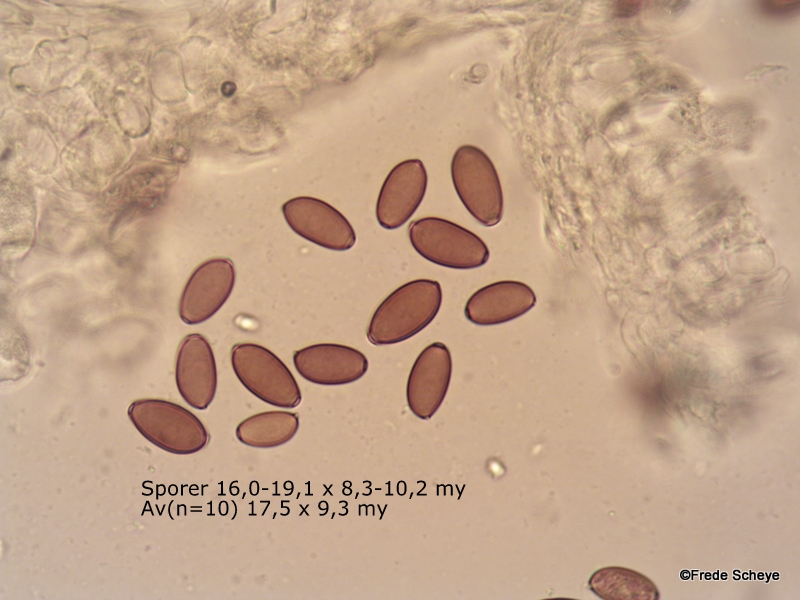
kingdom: Fungi
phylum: Basidiomycota
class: Agaricomycetes
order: Agaricales
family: Strophariaceae
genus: Protostropharia
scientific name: Protostropharia semiglobata
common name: halvkugleformet bredblad
